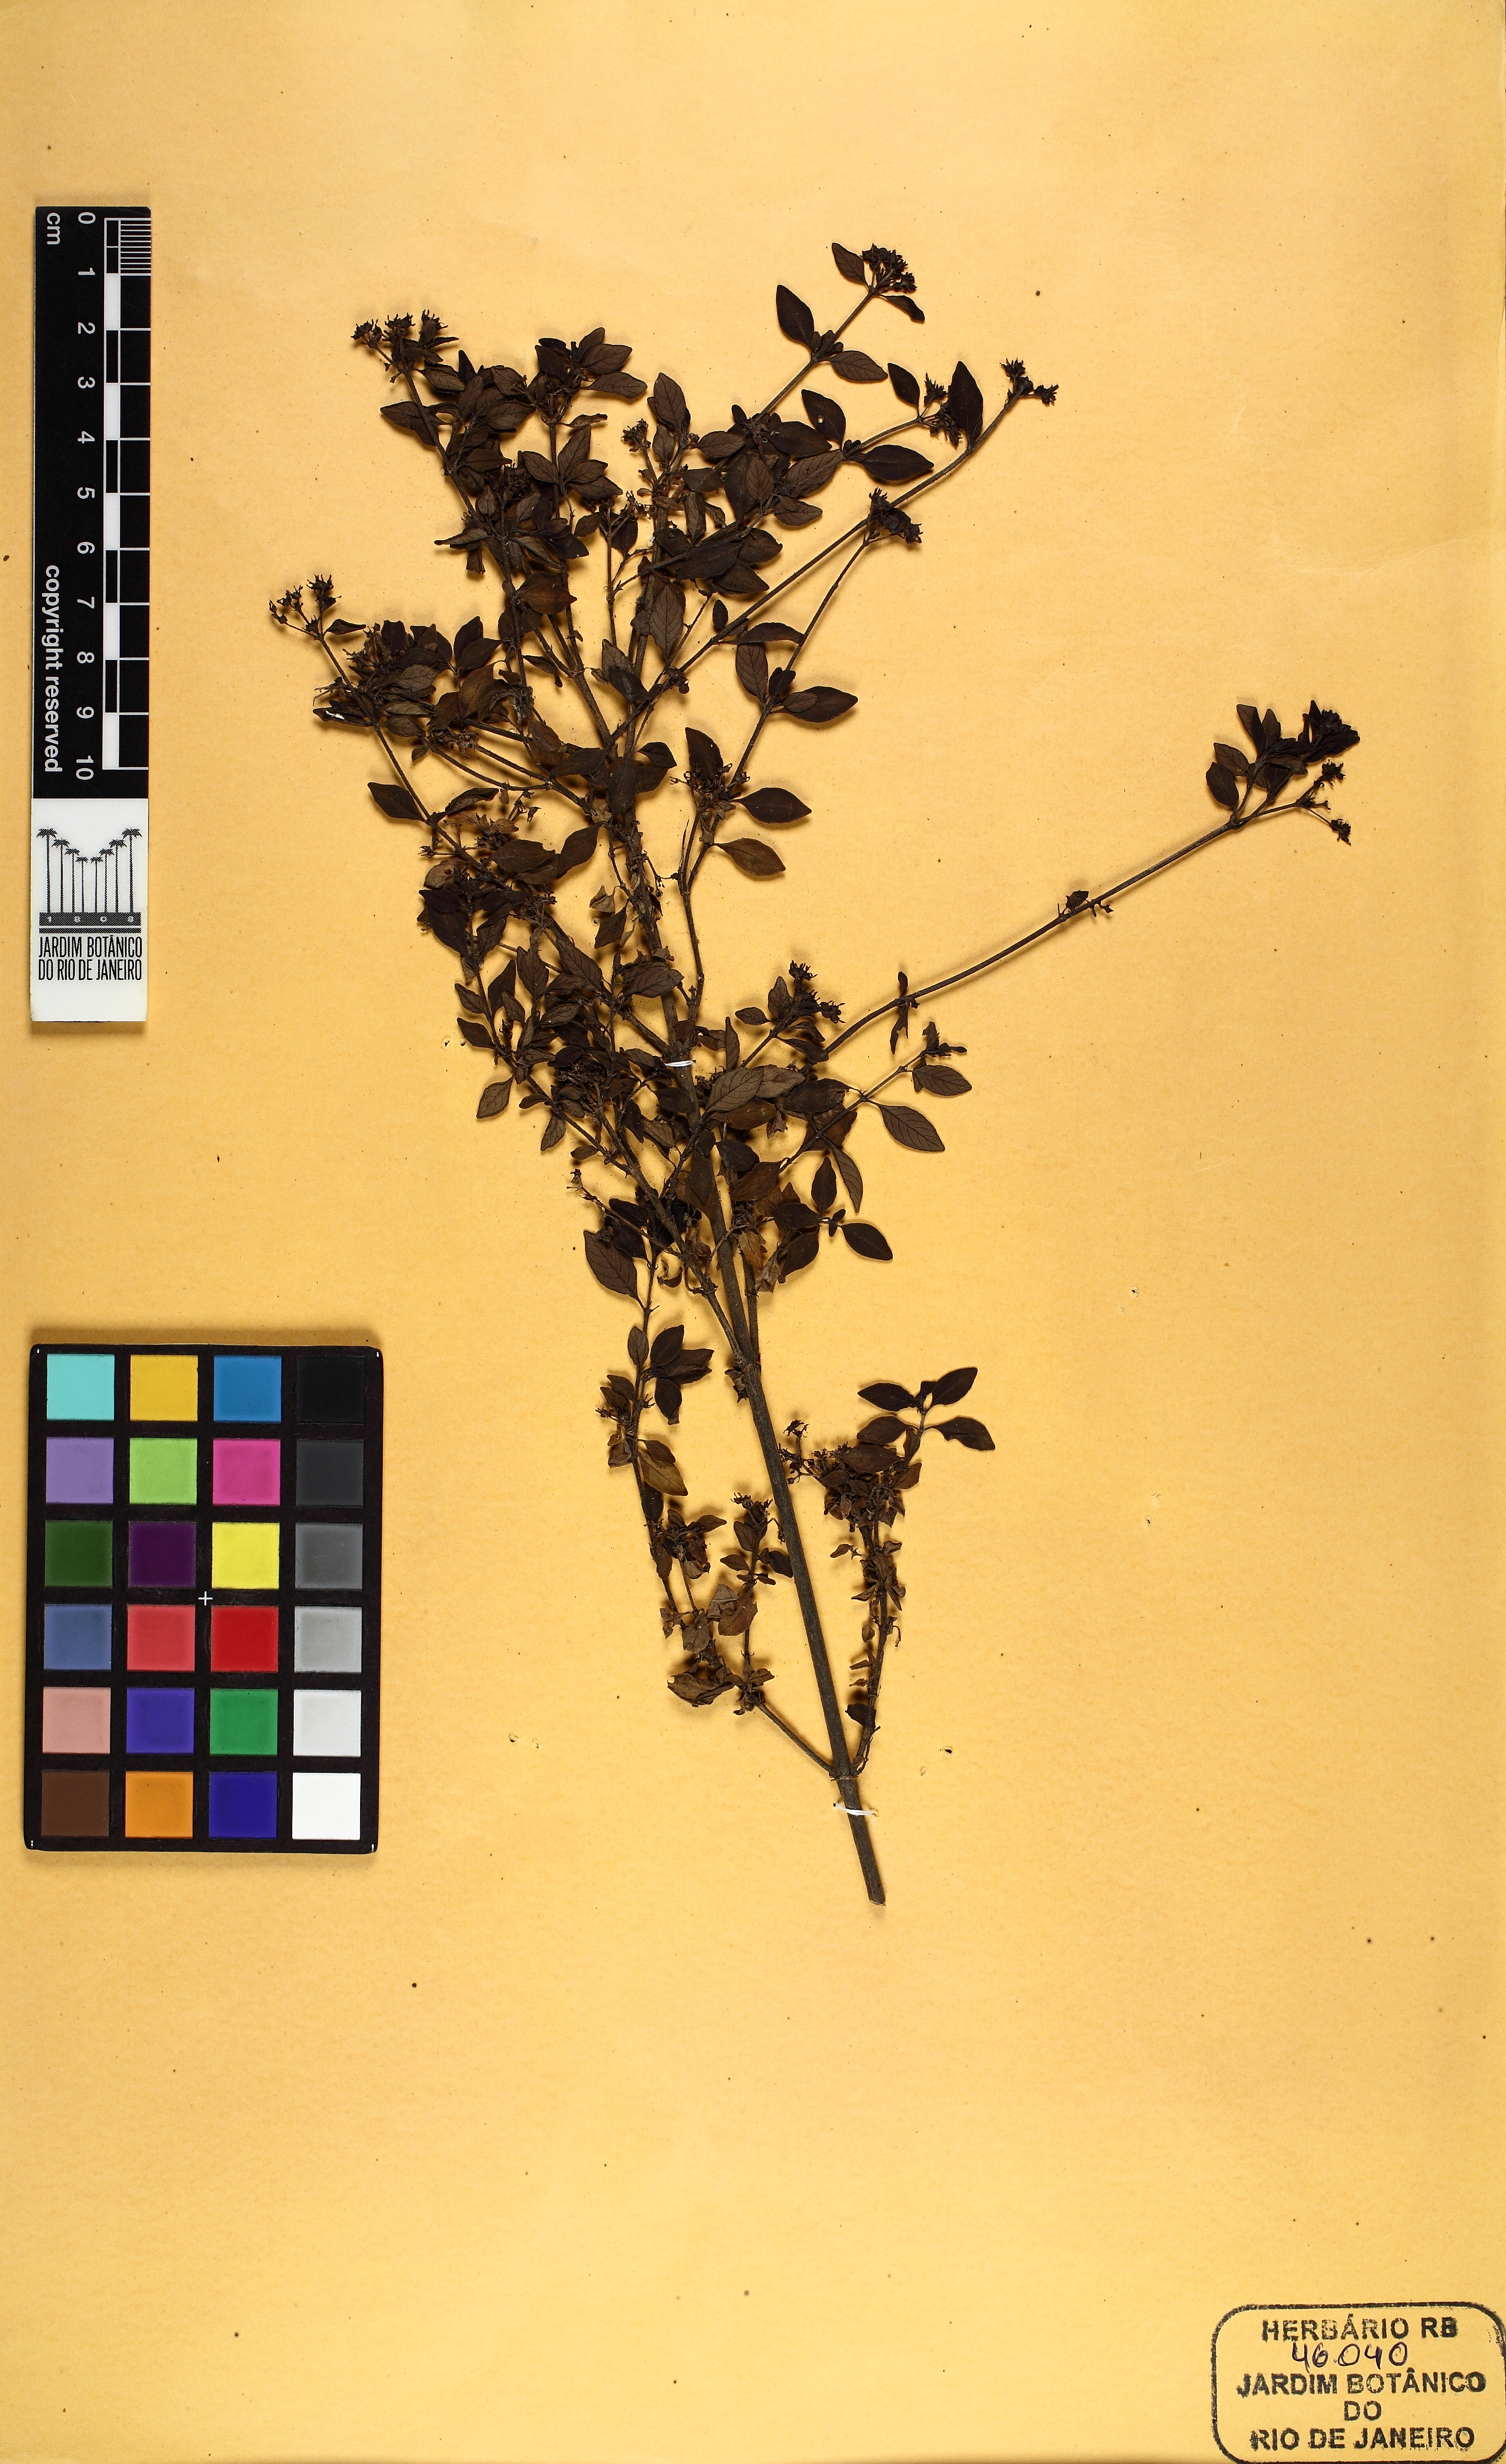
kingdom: Plantae
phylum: Tracheophyta
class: Magnoliopsida
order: Gentianales
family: Rubiaceae
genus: Declieuxia
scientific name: Declieuxia coerulea
